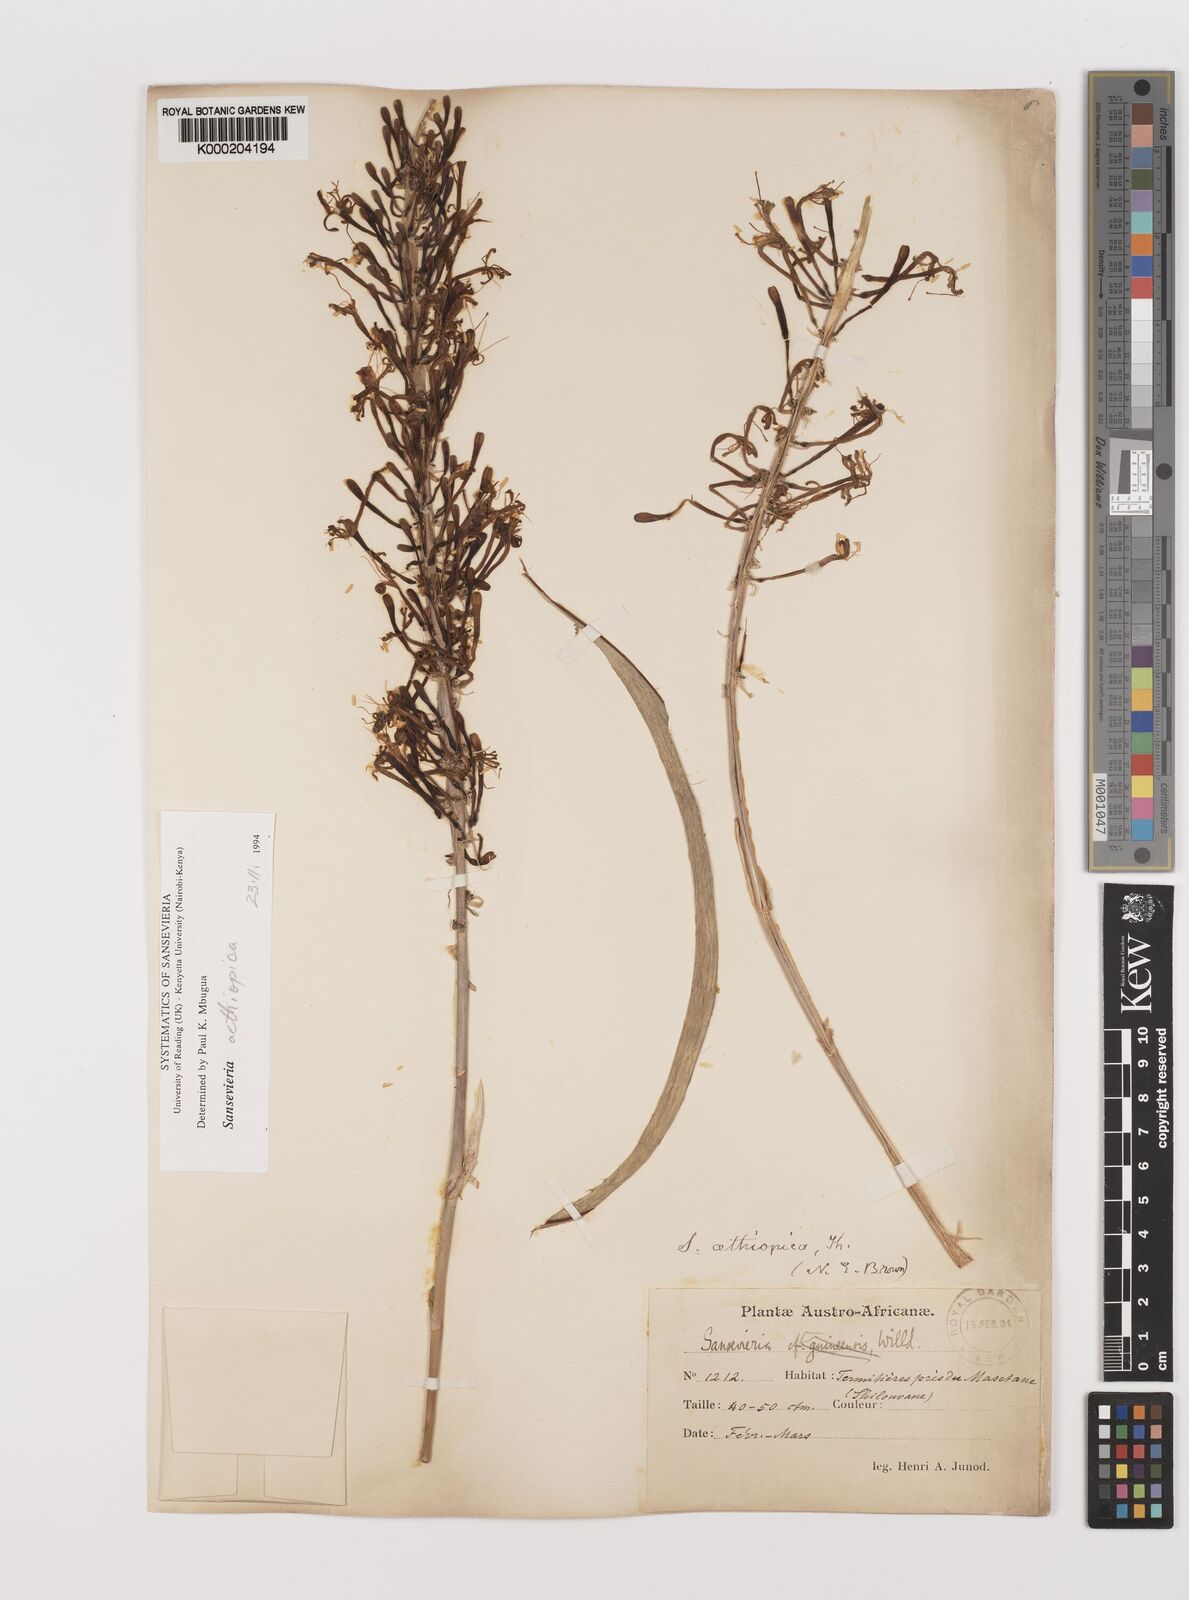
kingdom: Plantae
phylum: Tracheophyta
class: Liliopsida
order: Asparagales
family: Asparagaceae
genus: Dracaena
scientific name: Dracaena aethiopica
